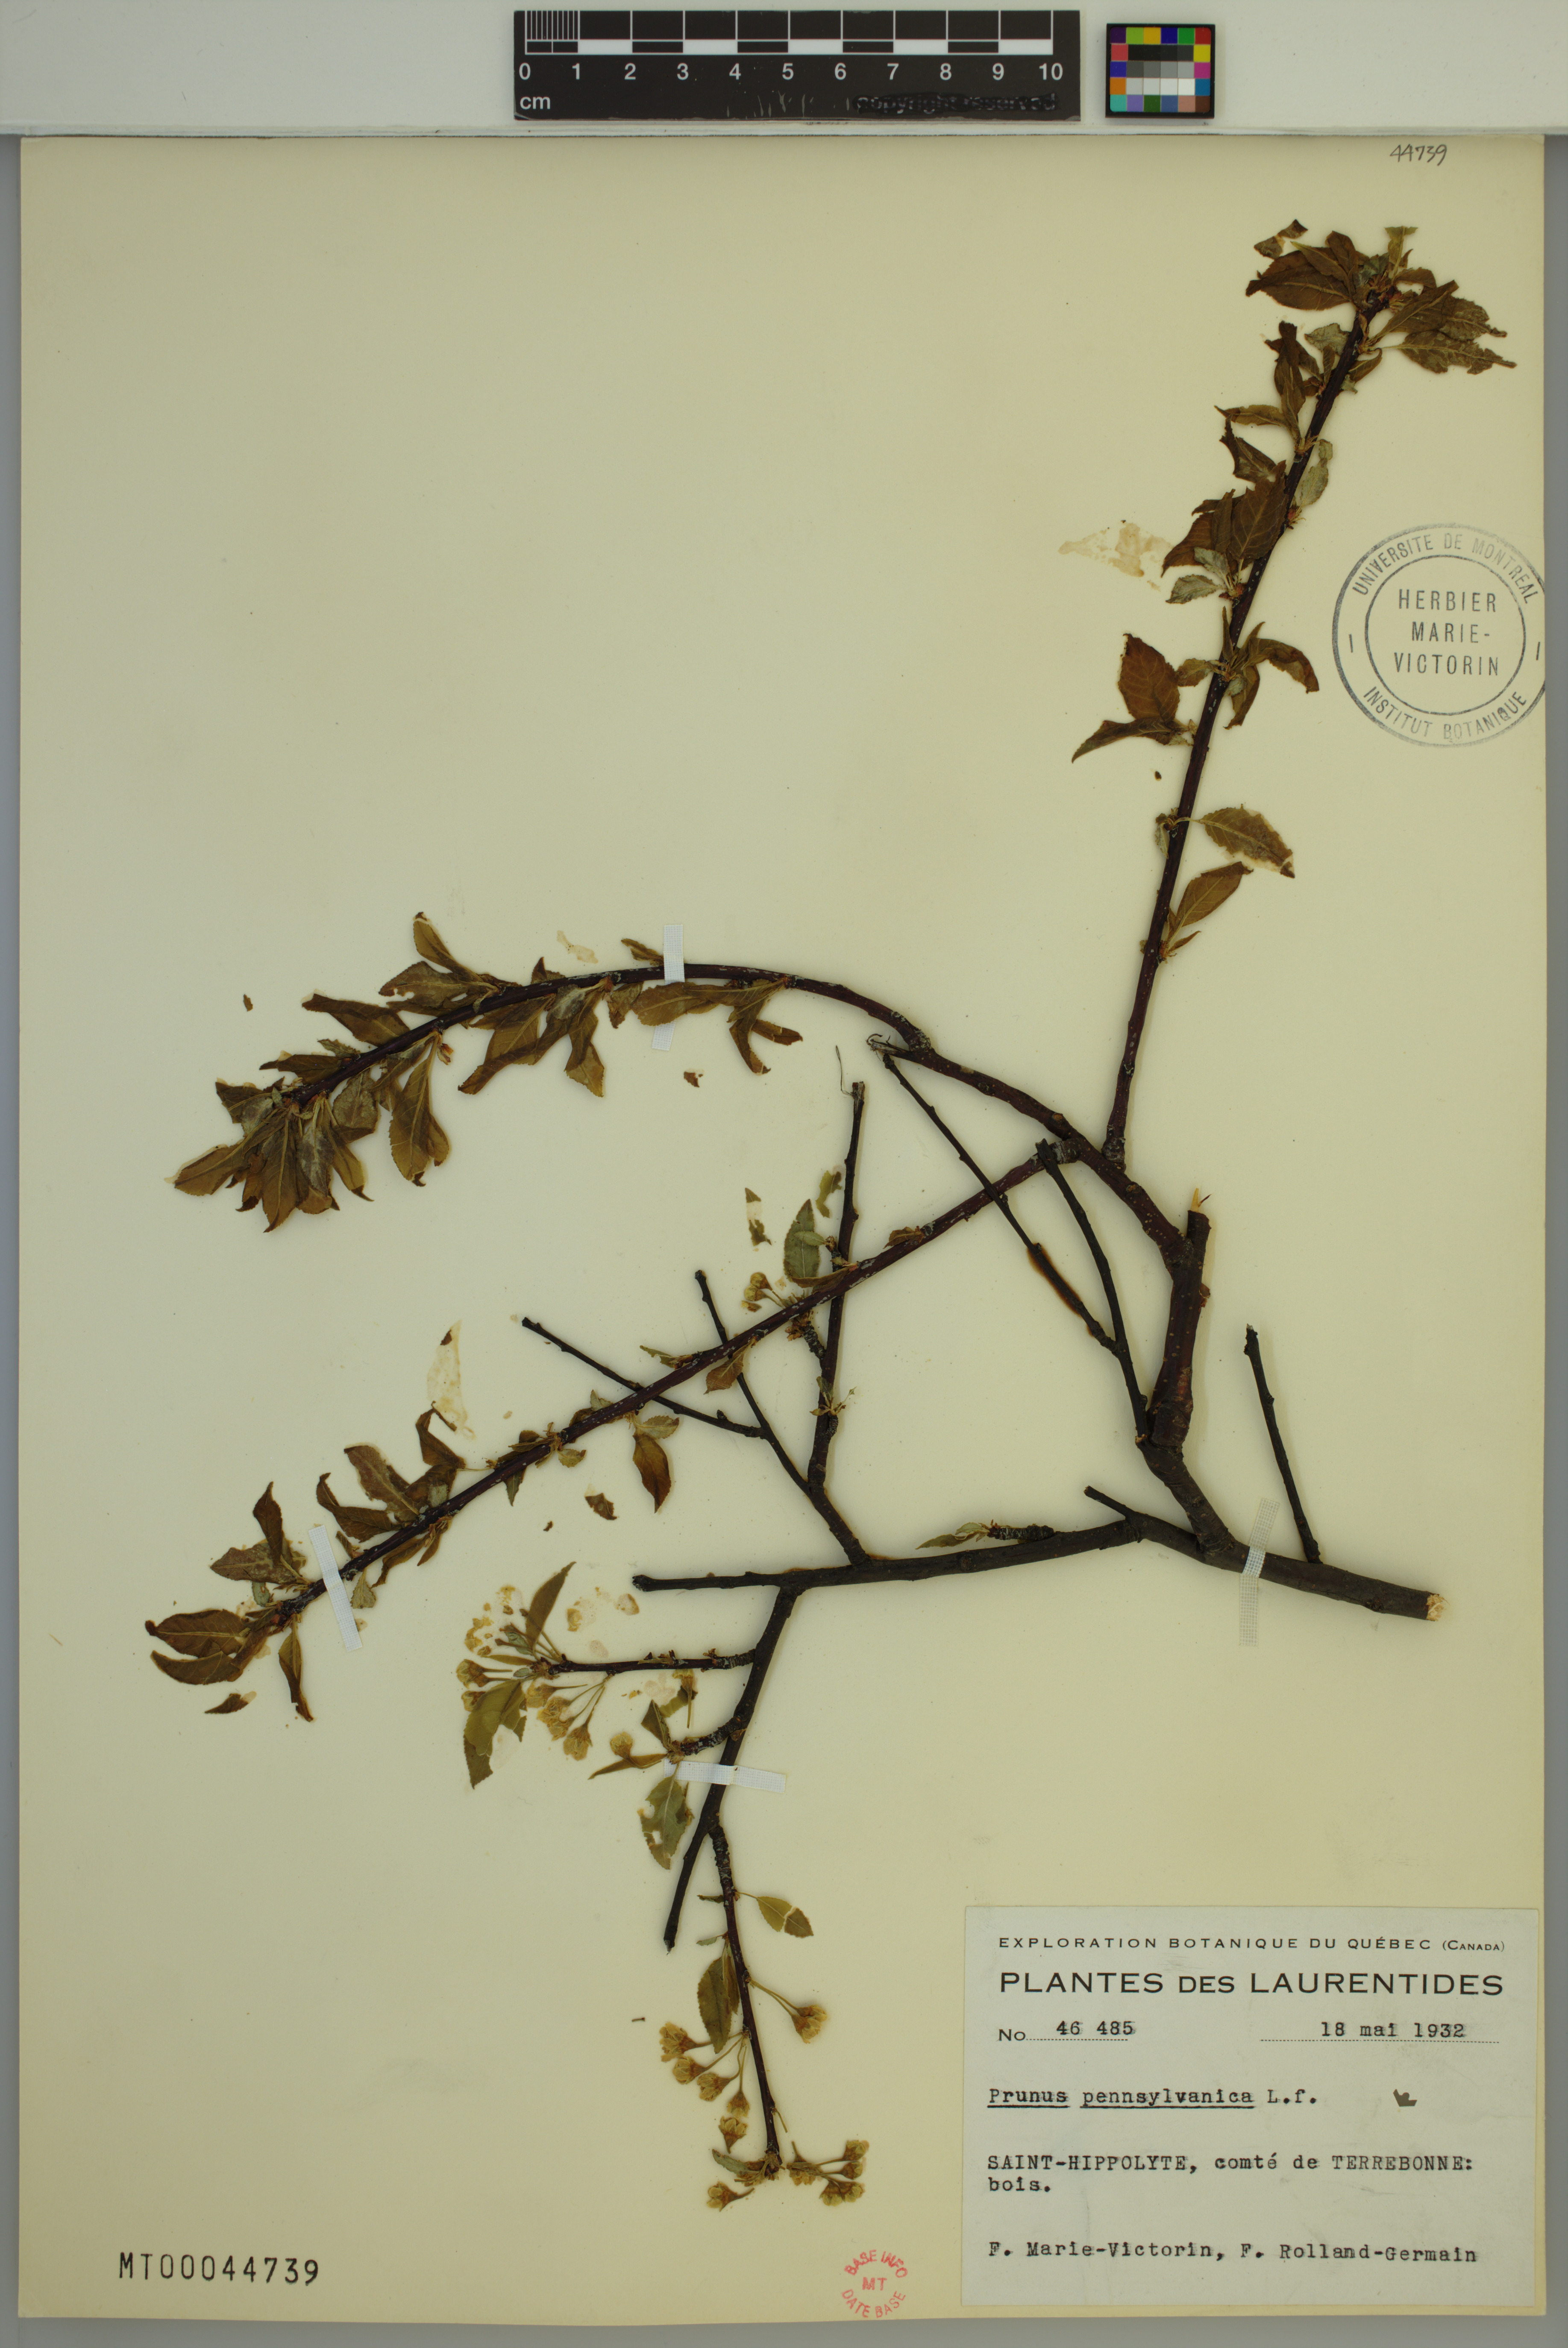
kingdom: Plantae
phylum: Tracheophyta
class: Magnoliopsida
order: Rosales
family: Rosaceae
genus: Prunus
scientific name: Prunus pensylvanica
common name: Pin cherry
